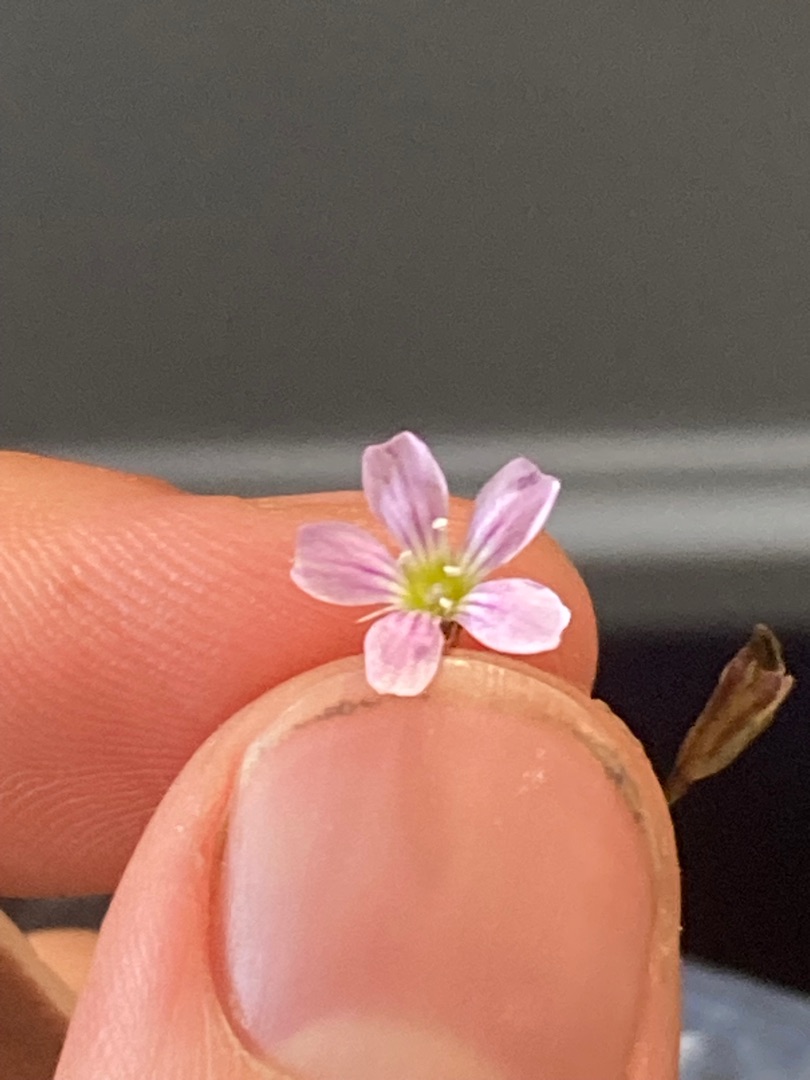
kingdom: Plantae
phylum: Tracheophyta
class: Magnoliopsida
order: Caryophyllales
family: Caryophyllaceae
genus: Petrorhagia
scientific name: Petrorhagia saxifraga
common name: Fjeld-knopnellike
